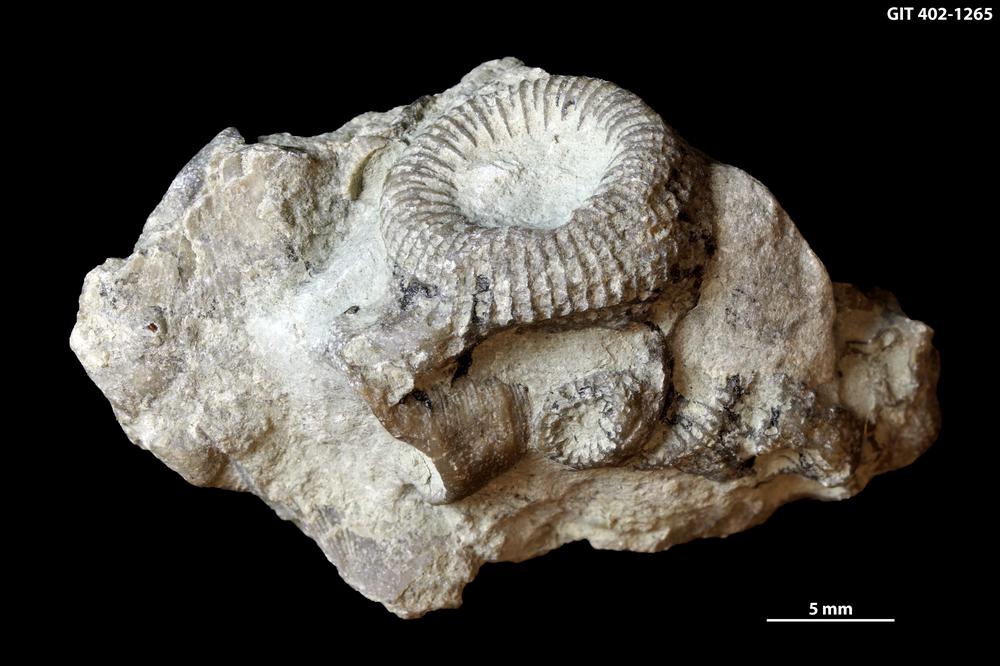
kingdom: Animalia
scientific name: Animalia
